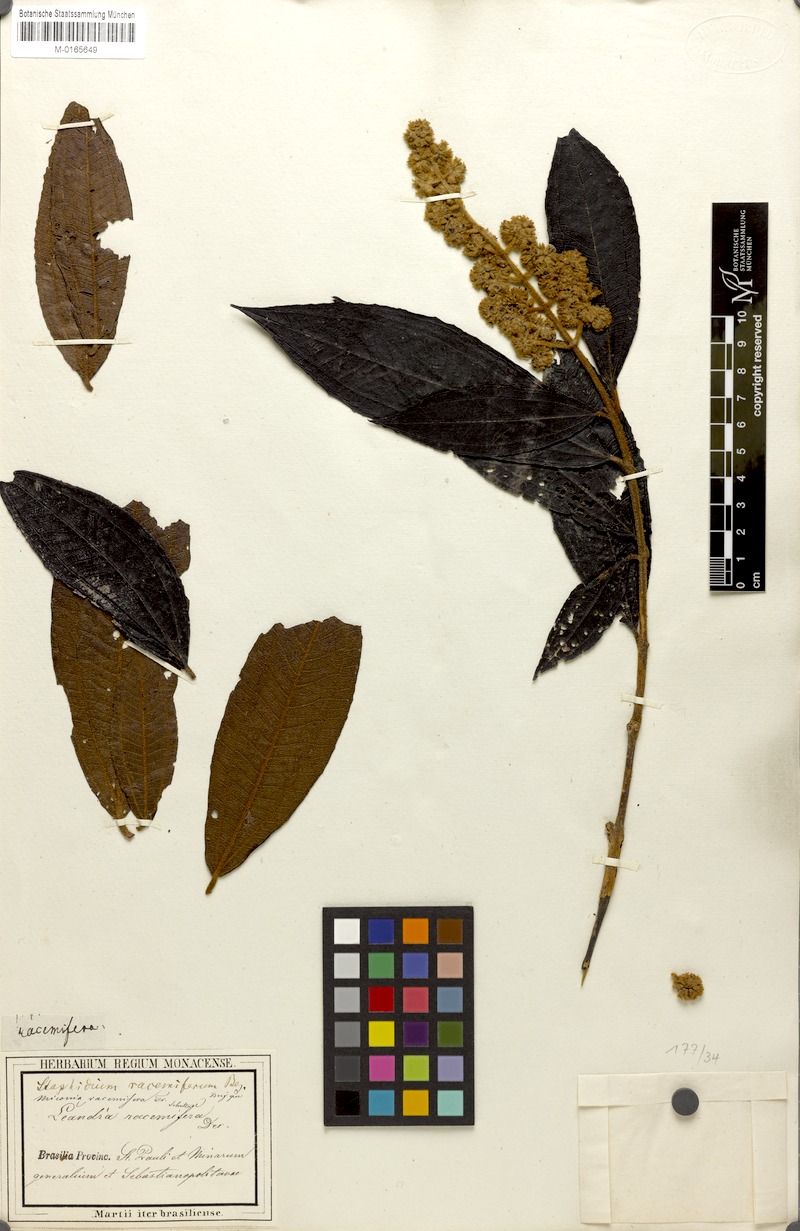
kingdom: Plantae
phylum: Tracheophyta
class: Magnoliopsida
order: Myrtales
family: Melastomataceae
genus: Miconia
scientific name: Miconia racemifera
